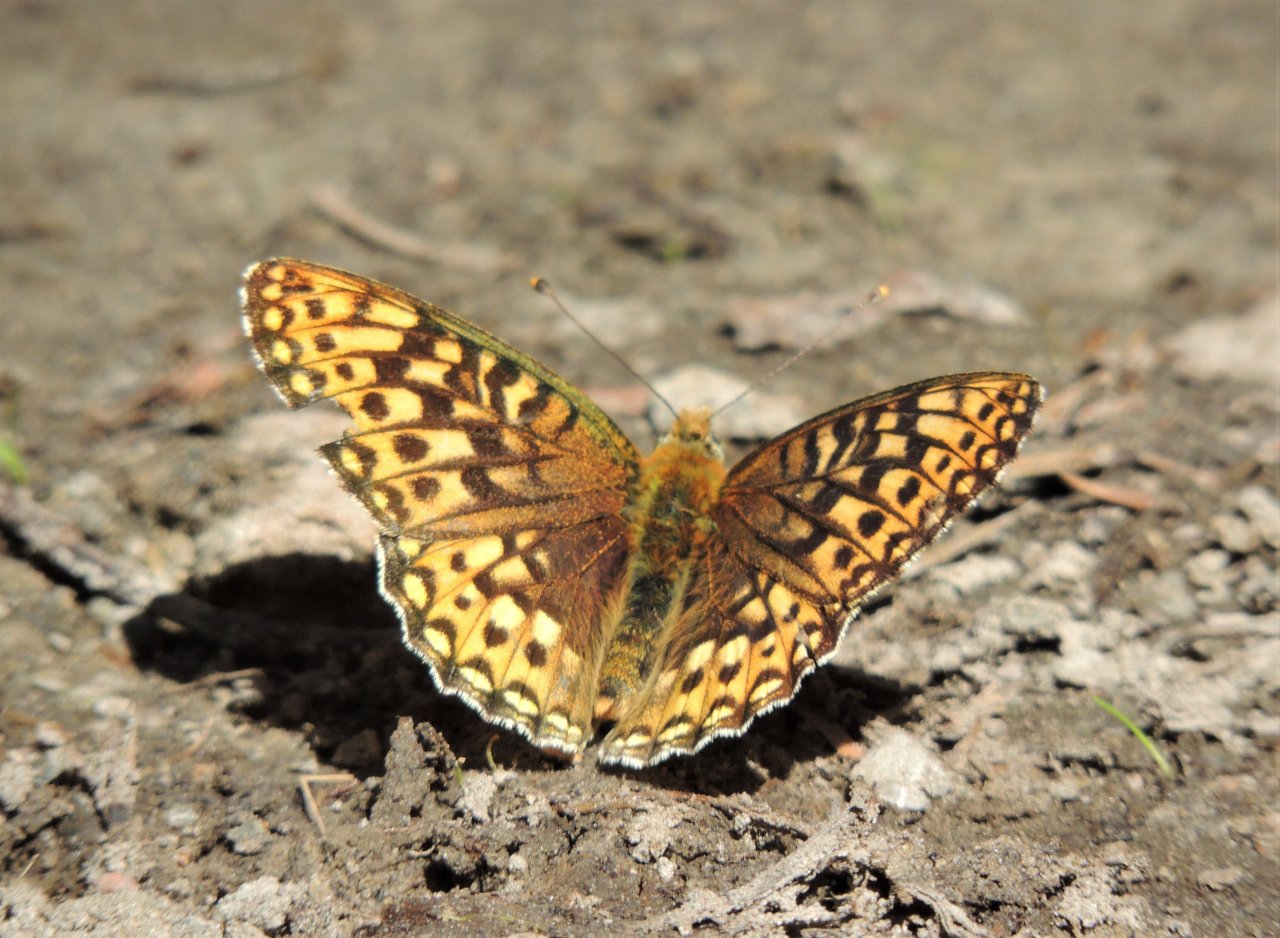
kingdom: Animalia
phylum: Arthropoda
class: Insecta
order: Lepidoptera
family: Nymphalidae
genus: Speyeria
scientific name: Speyeria egleis
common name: Great Basin Fritillary
